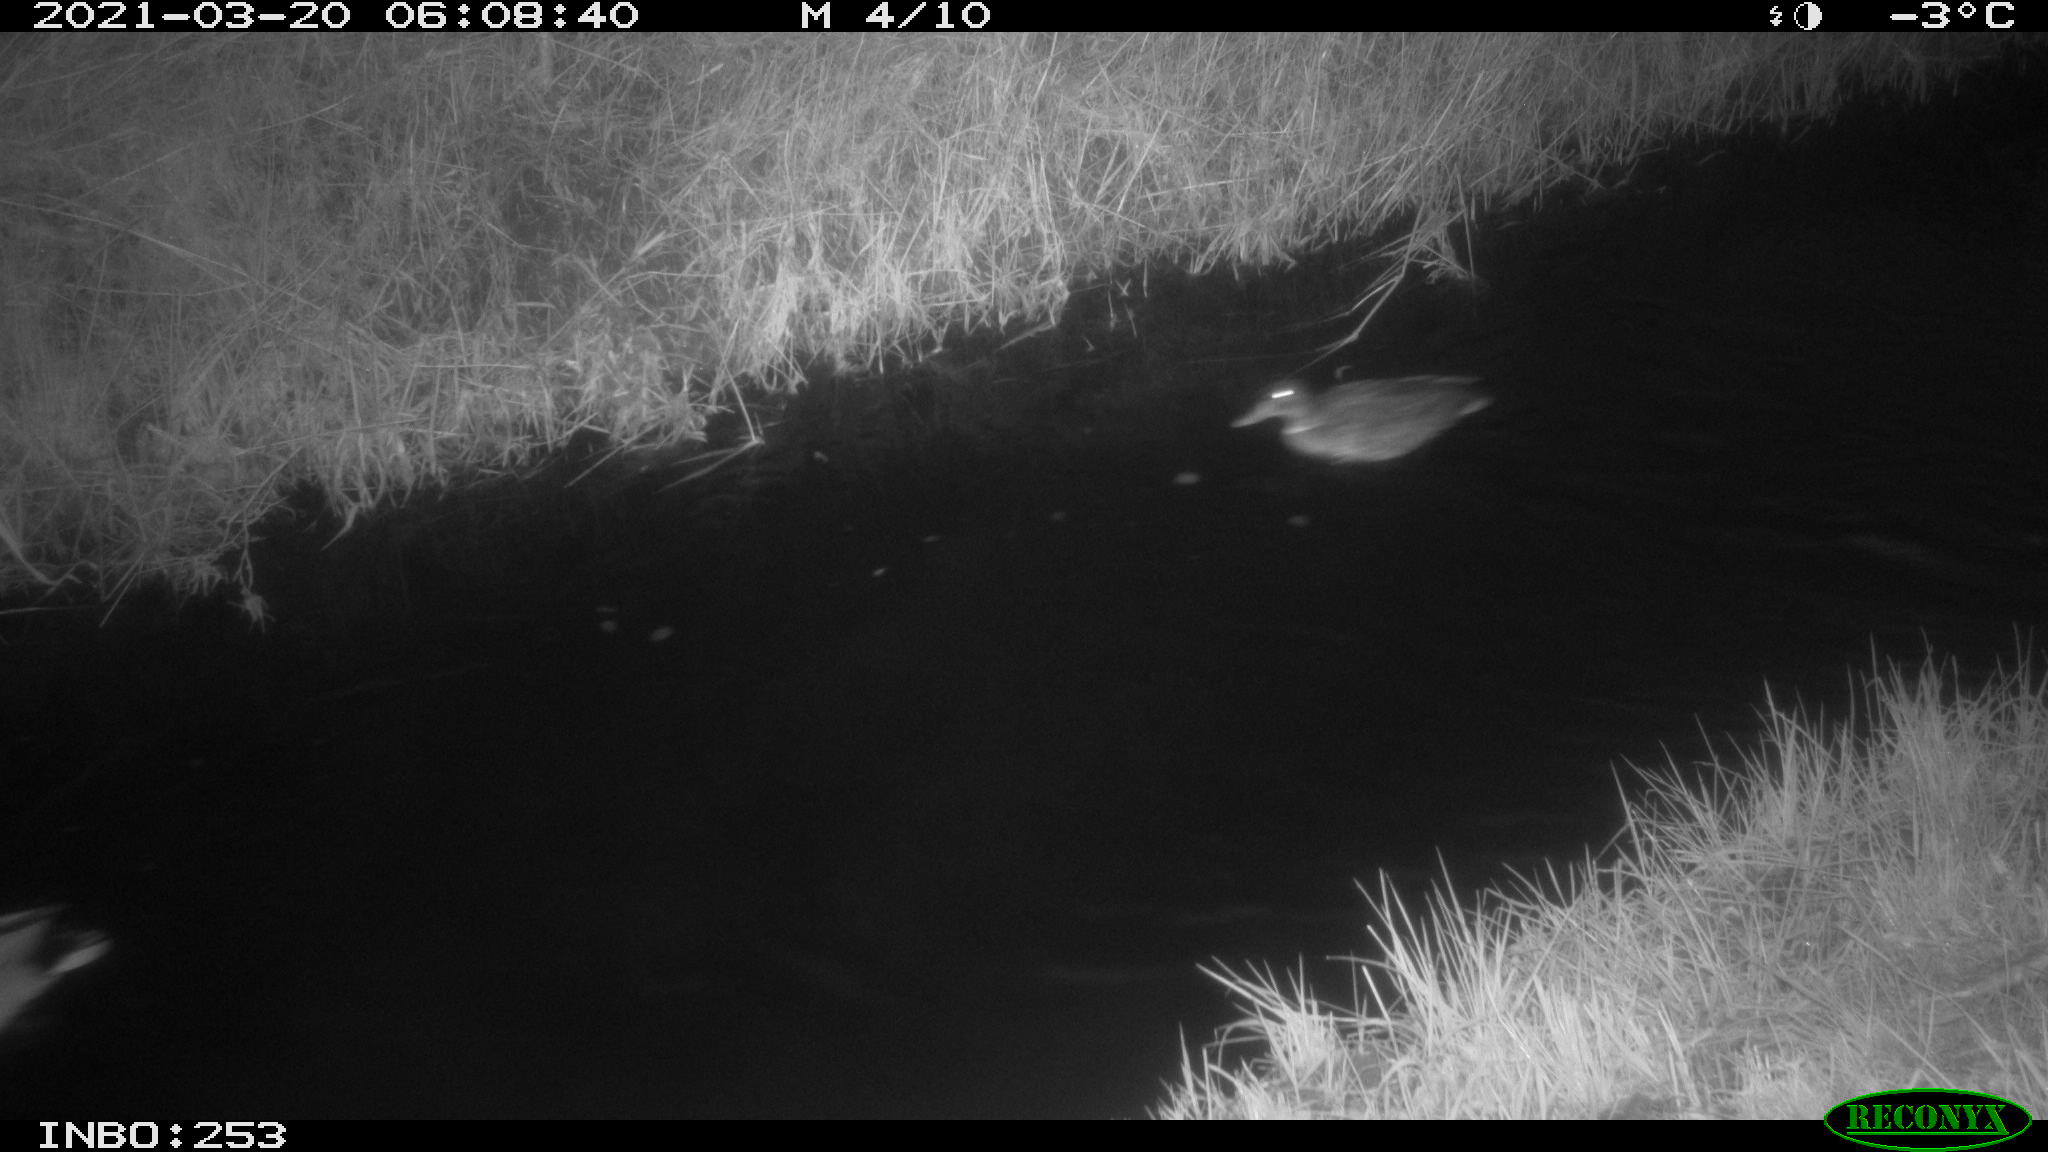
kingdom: Animalia
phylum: Chordata
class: Aves
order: Anseriformes
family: Anatidae
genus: Anas
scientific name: Anas platyrhynchos
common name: Mallard
